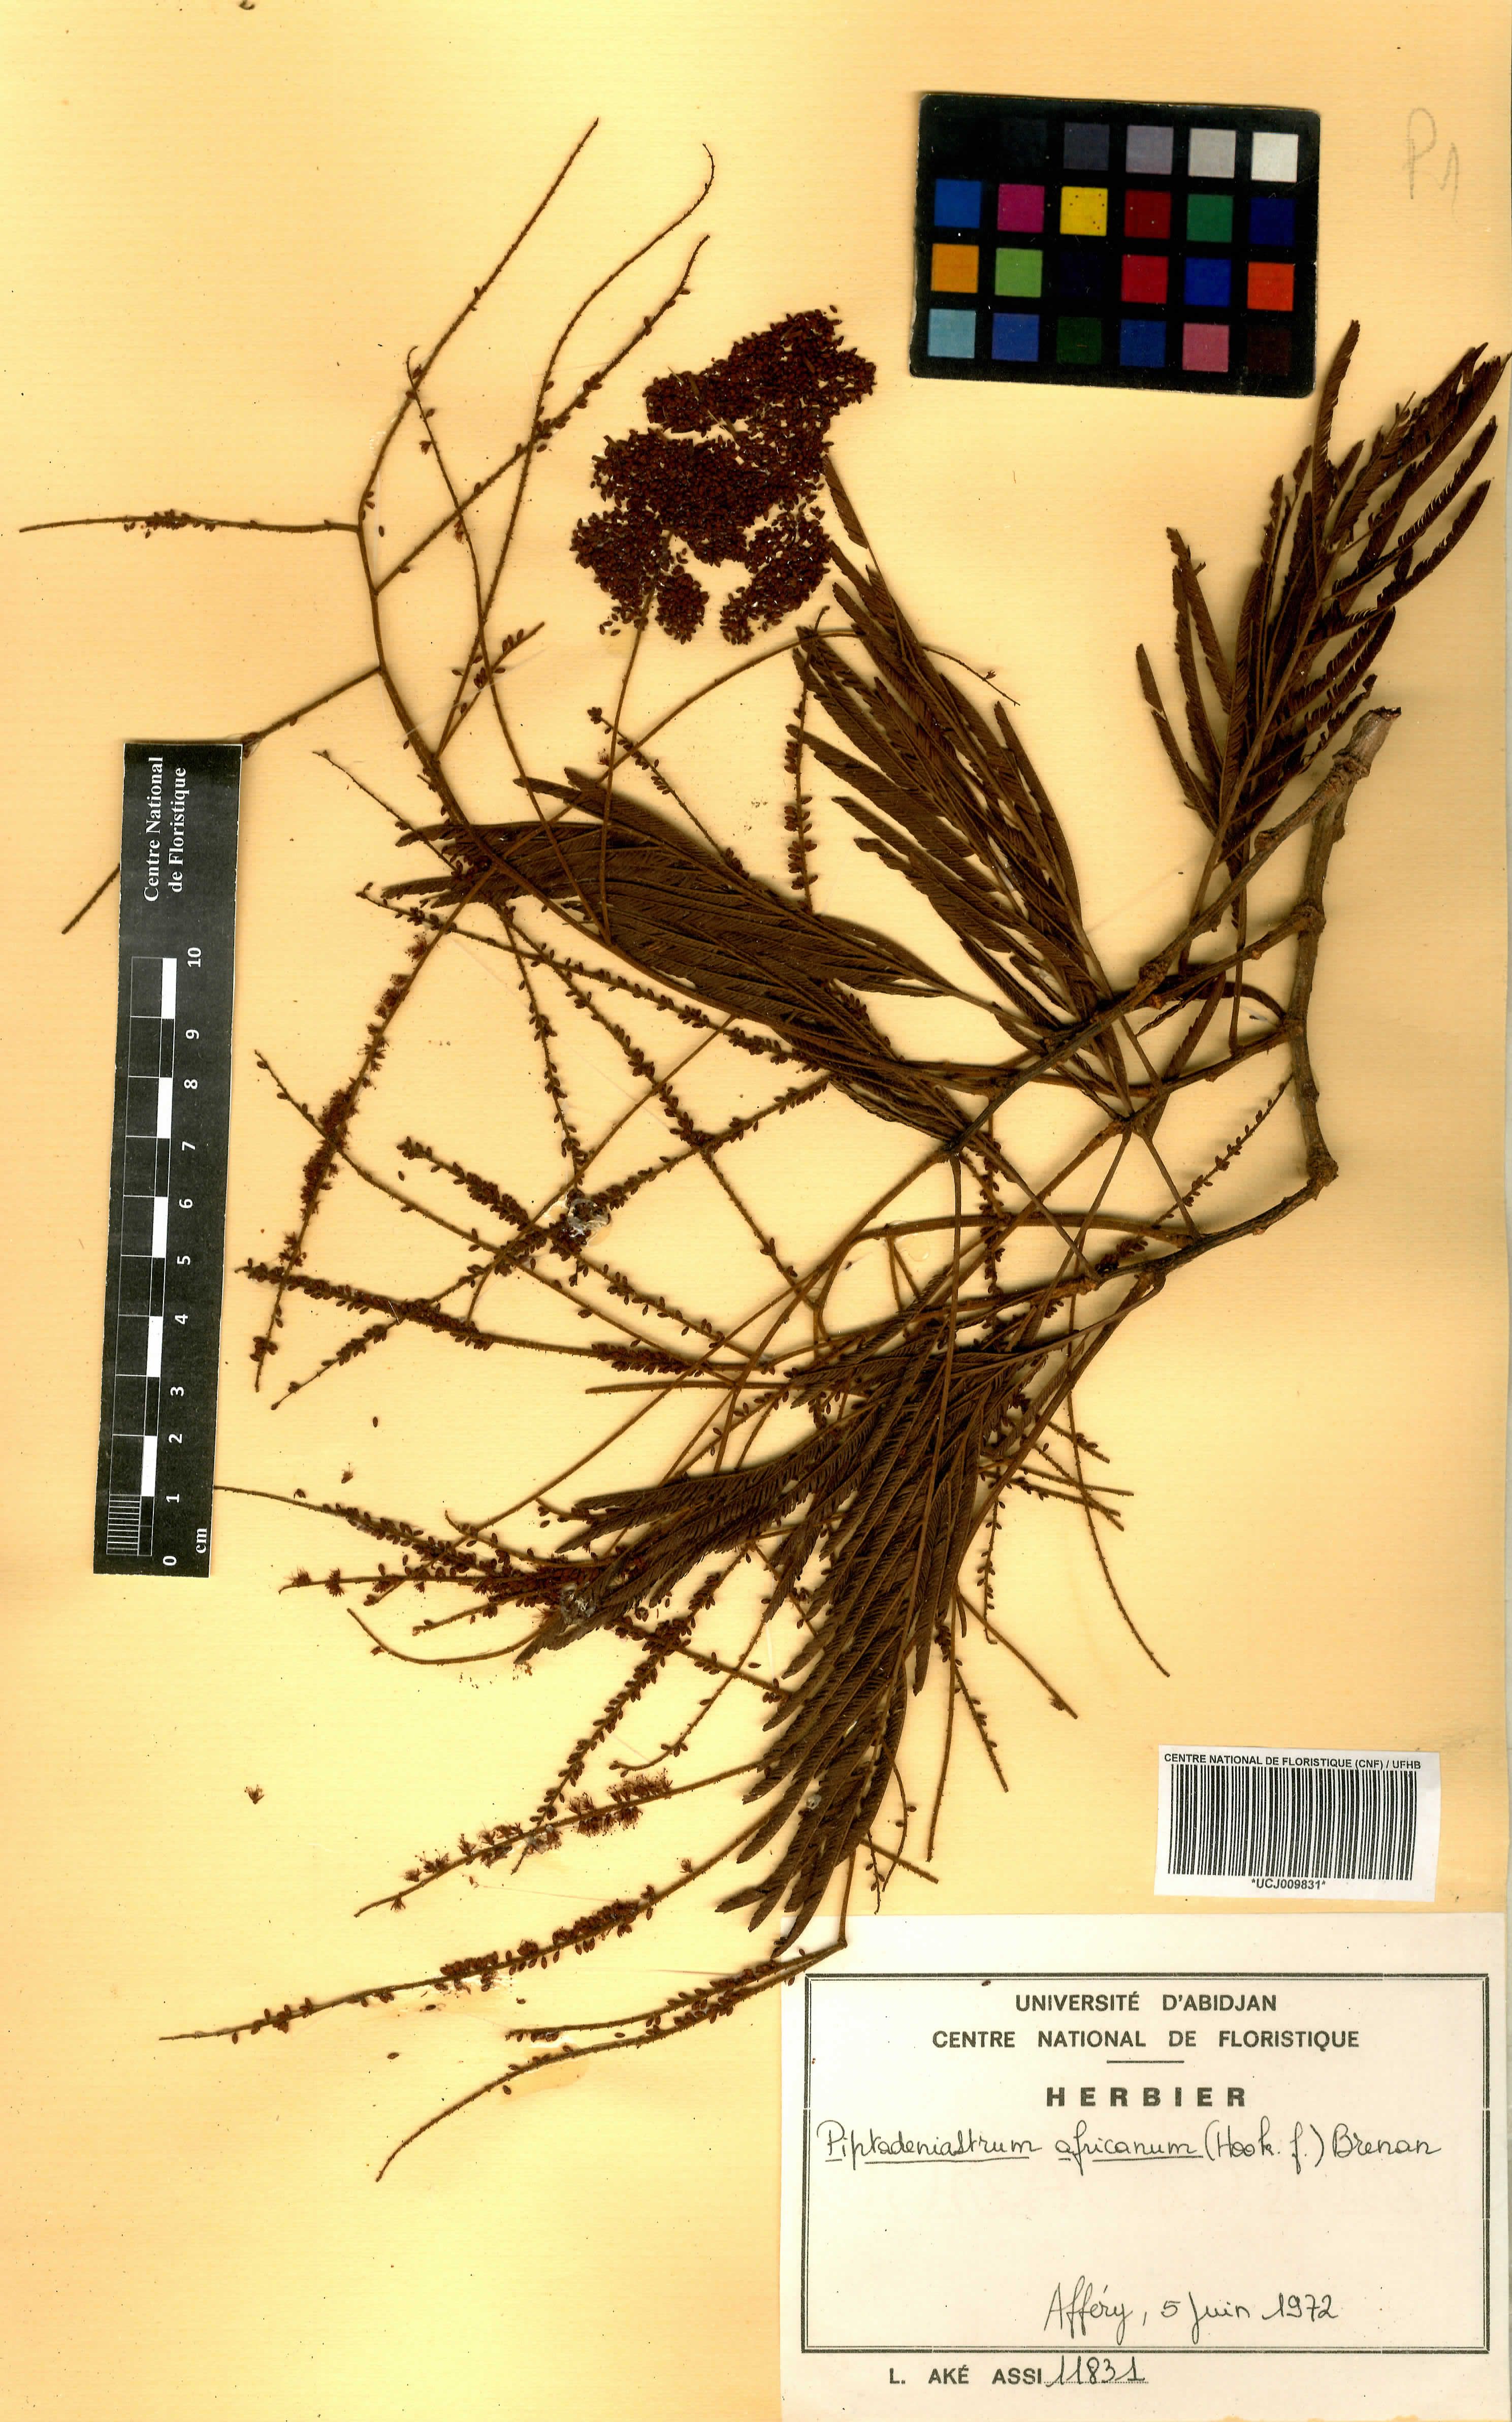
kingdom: Plantae
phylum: Tracheophyta
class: Magnoliopsida
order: Fabales
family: Fabaceae
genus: Piptadeniastrum
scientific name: Piptadeniastrum africanum
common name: African greenheart
